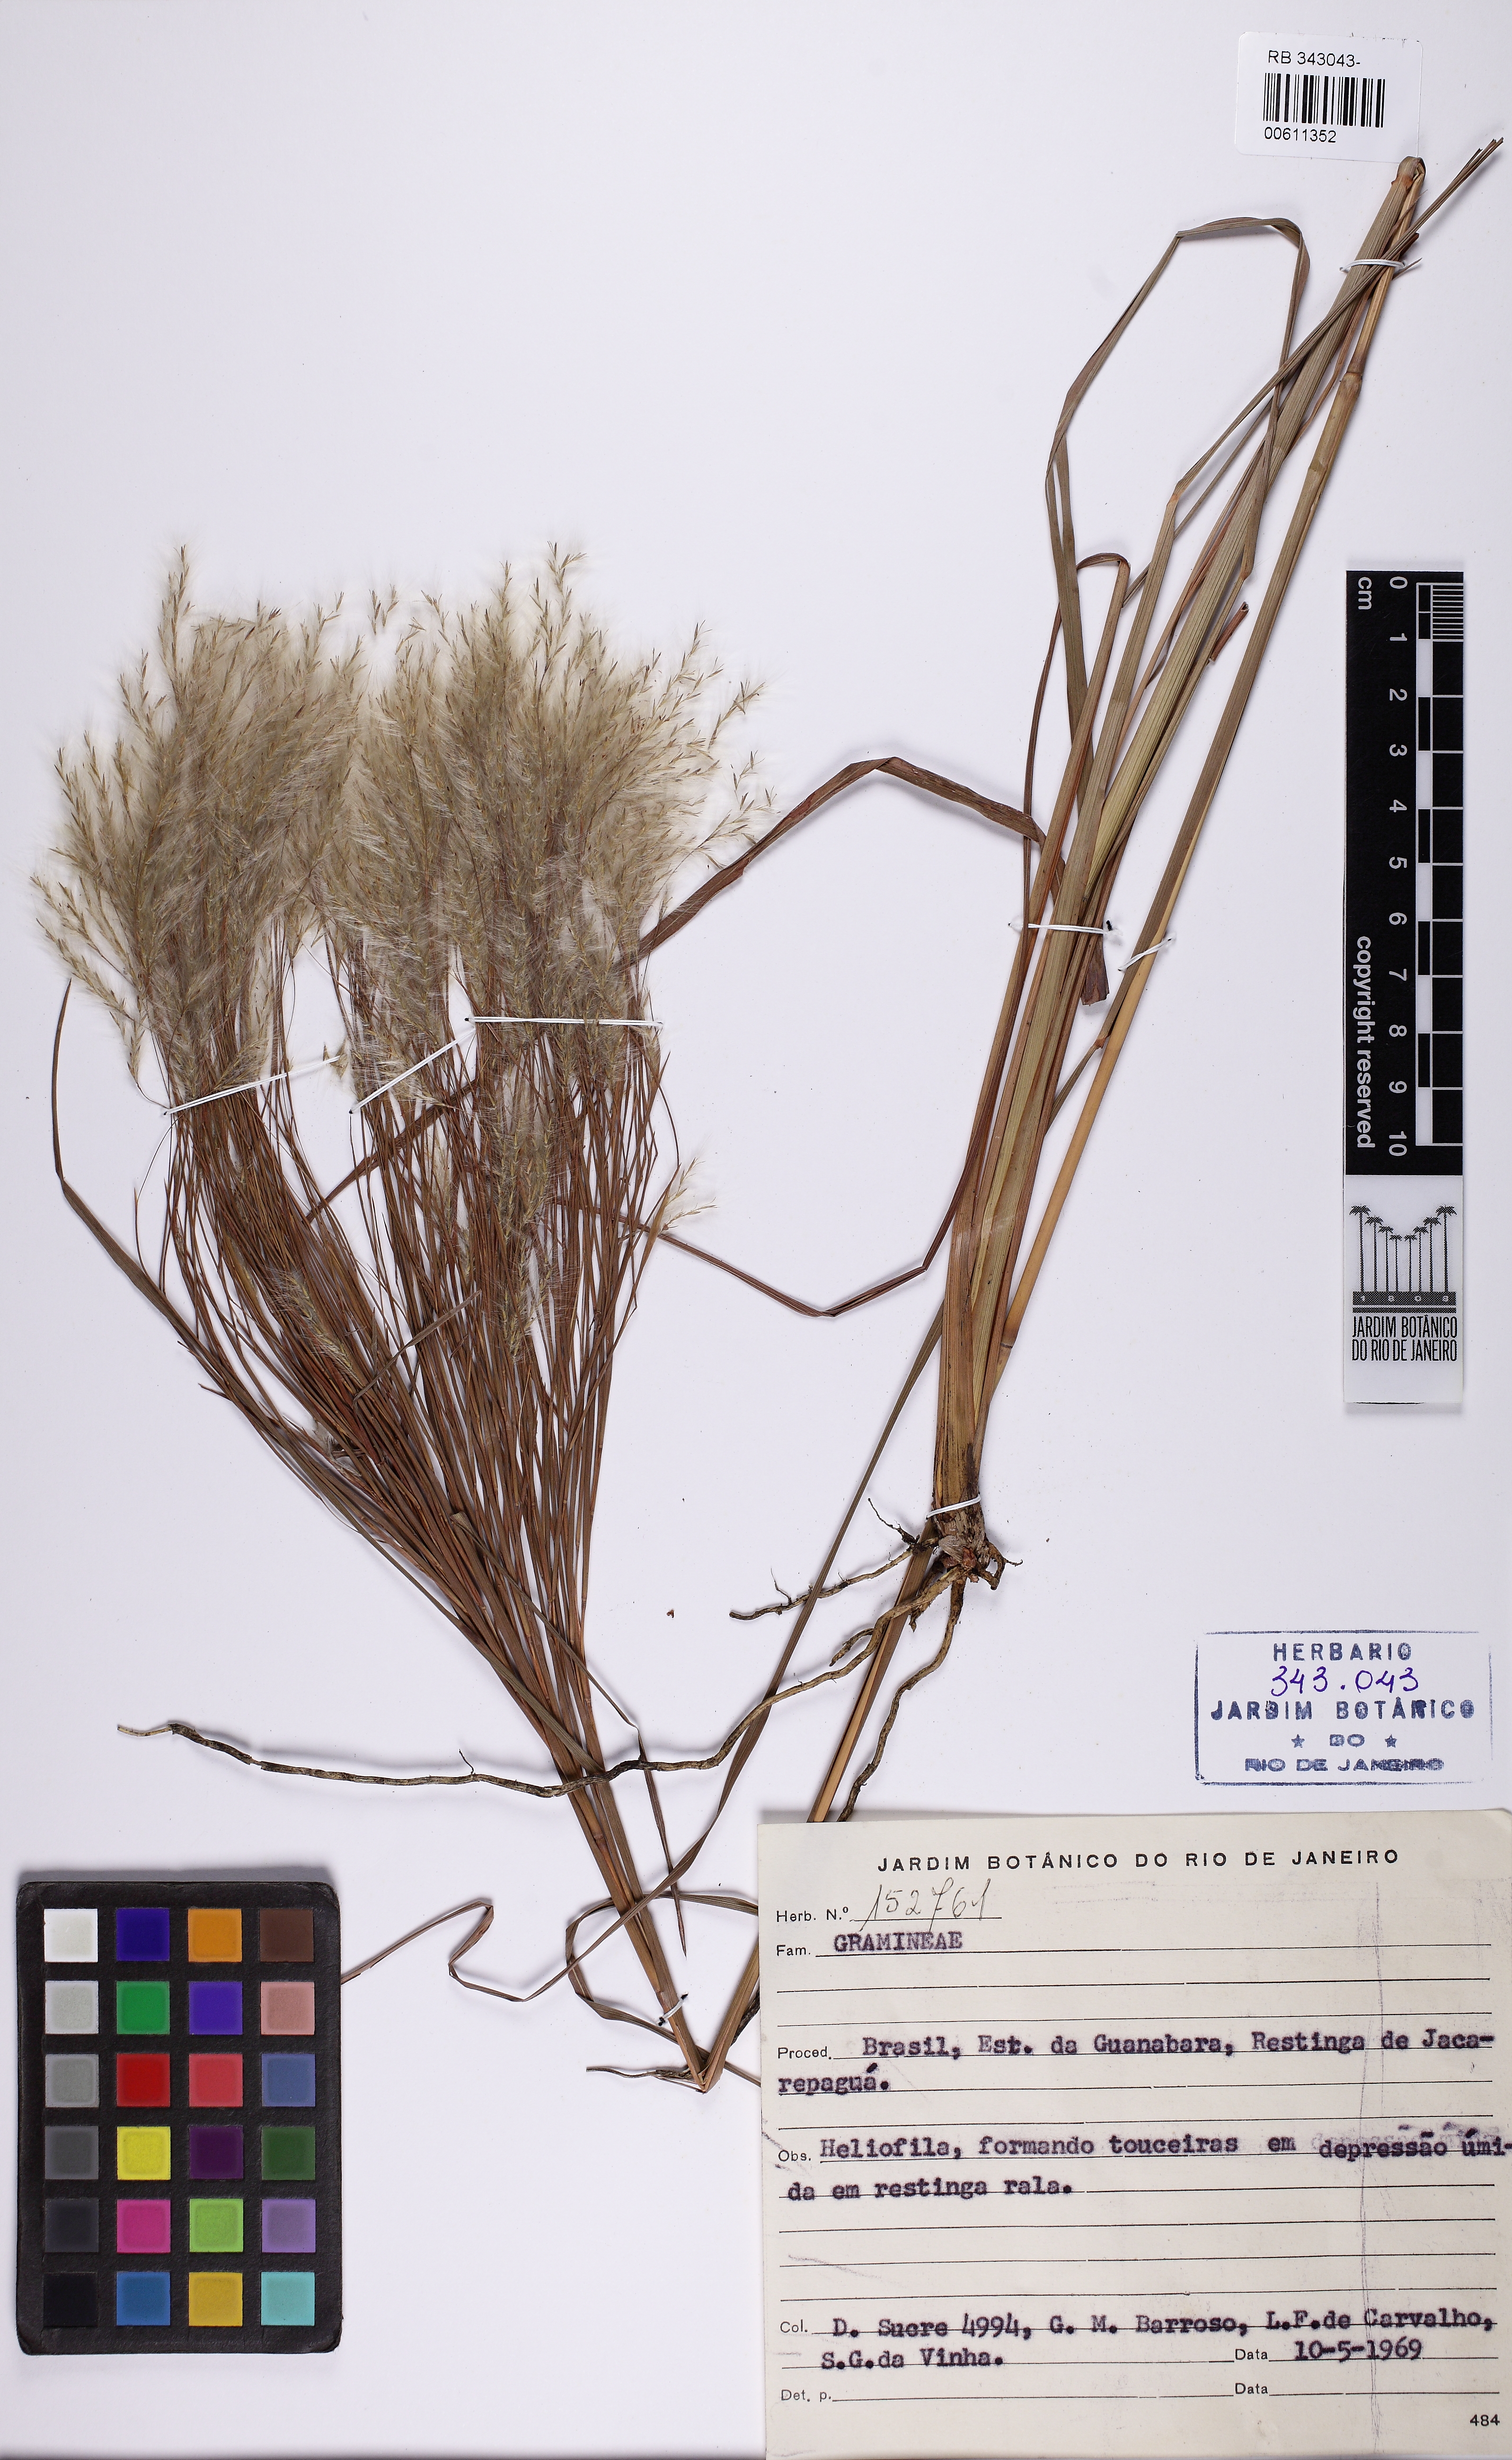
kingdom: Plantae
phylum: Tracheophyta
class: Liliopsida
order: Poales
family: Poaceae
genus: Andropogon
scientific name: Andropogon bicornis
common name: West indian foxtail grass
